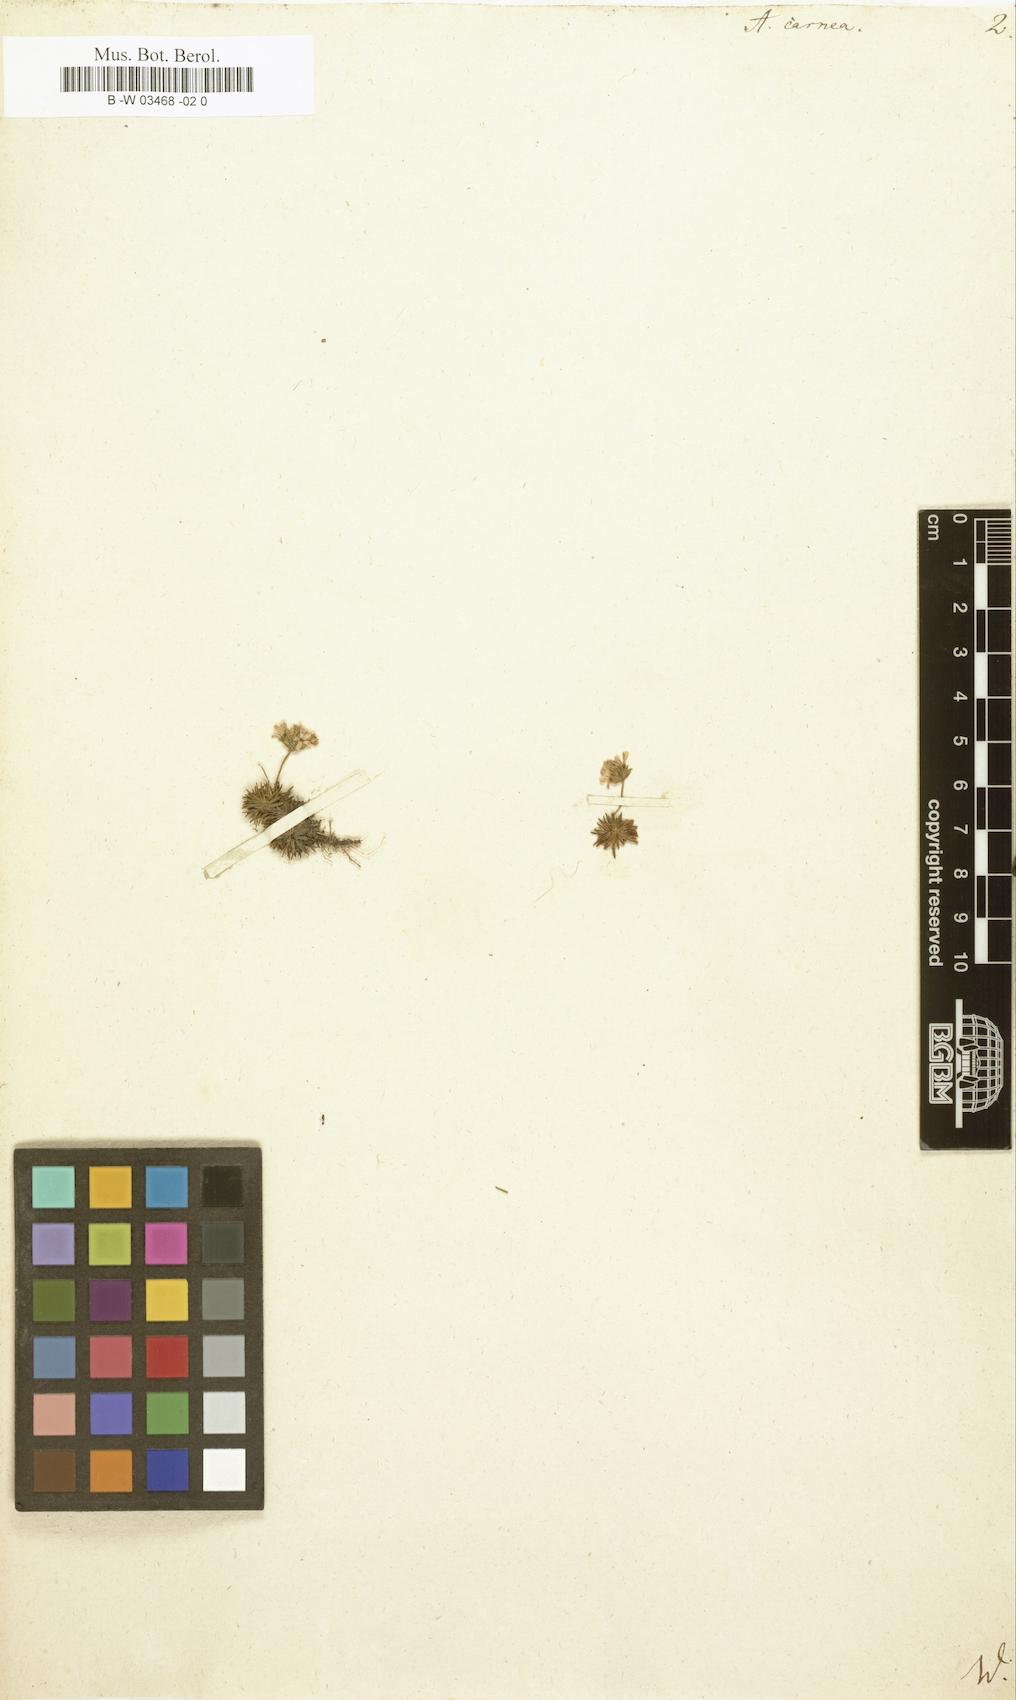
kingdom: Plantae
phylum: Tracheophyta
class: Magnoliopsida
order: Ericales
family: Primulaceae
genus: Androsace
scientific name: Androsace laggeri
